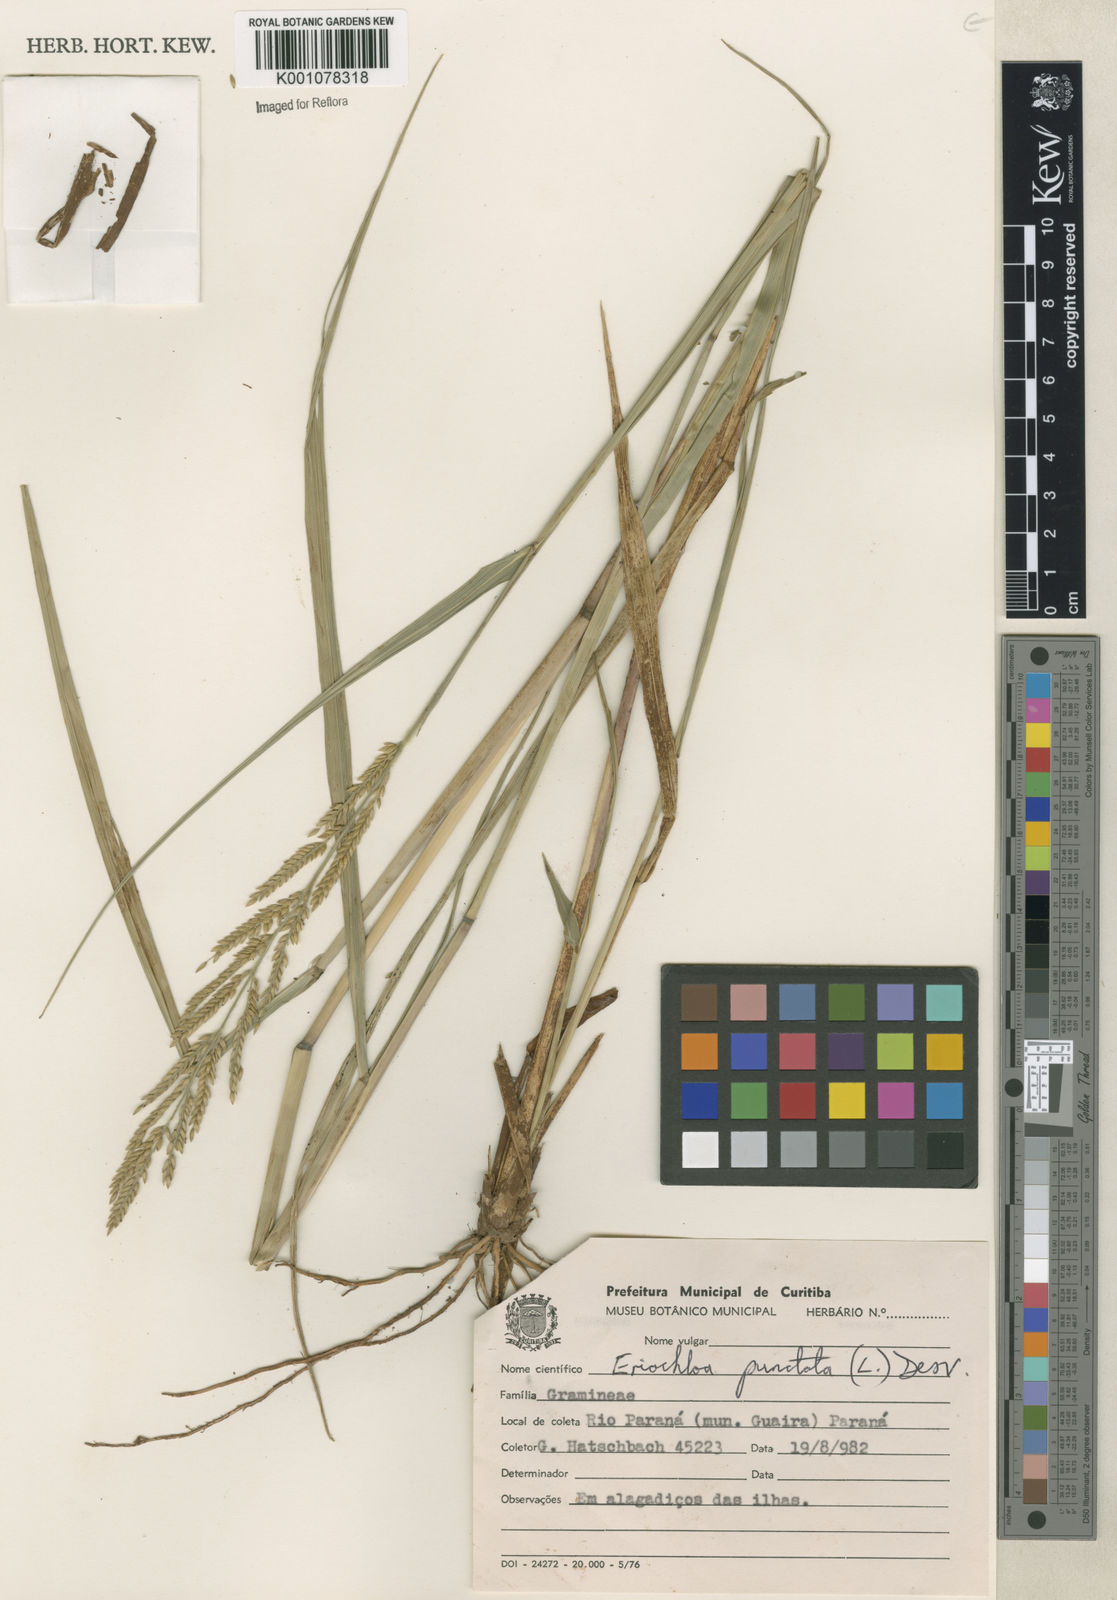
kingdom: Plantae
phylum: Tracheophyta
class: Liliopsida
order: Poales
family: Poaceae
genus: Eriochloa
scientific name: Eriochloa punctata
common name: Louisiana cupgrass
